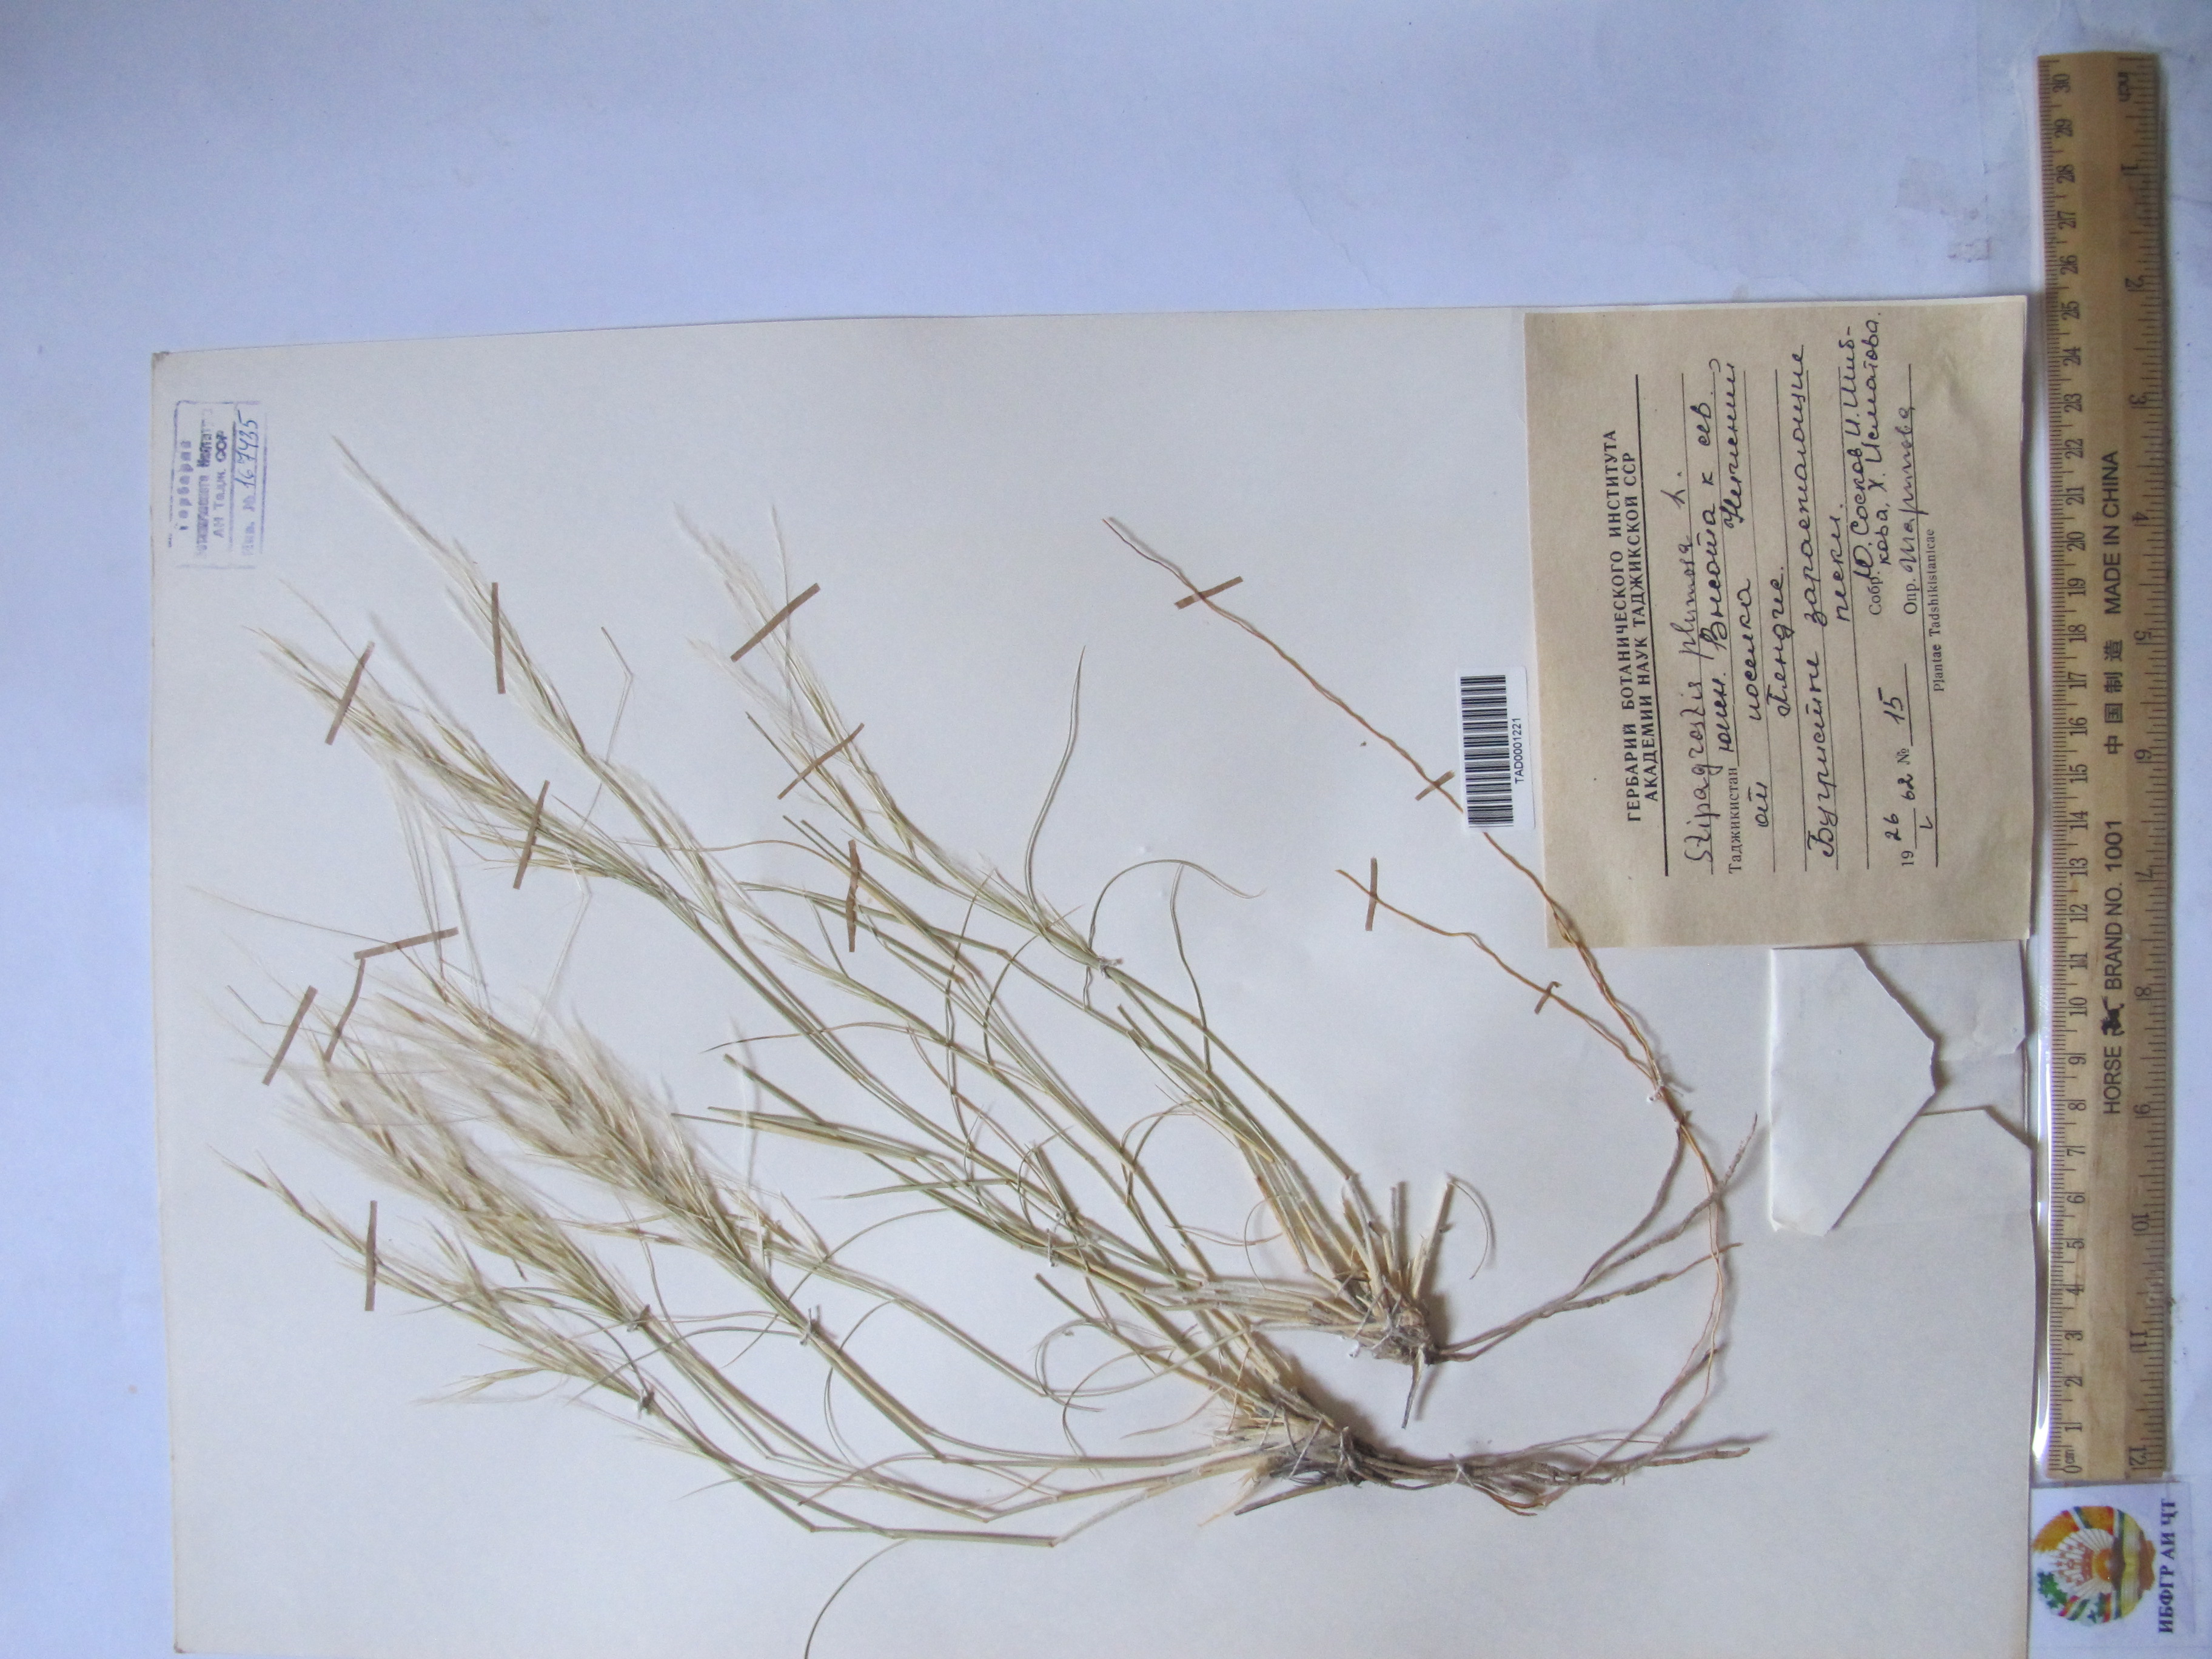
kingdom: Plantae
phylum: Tracheophyta
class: Liliopsida
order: Poales
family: Poaceae
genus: Stipagrostis
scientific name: Stipagrostis plumosa
